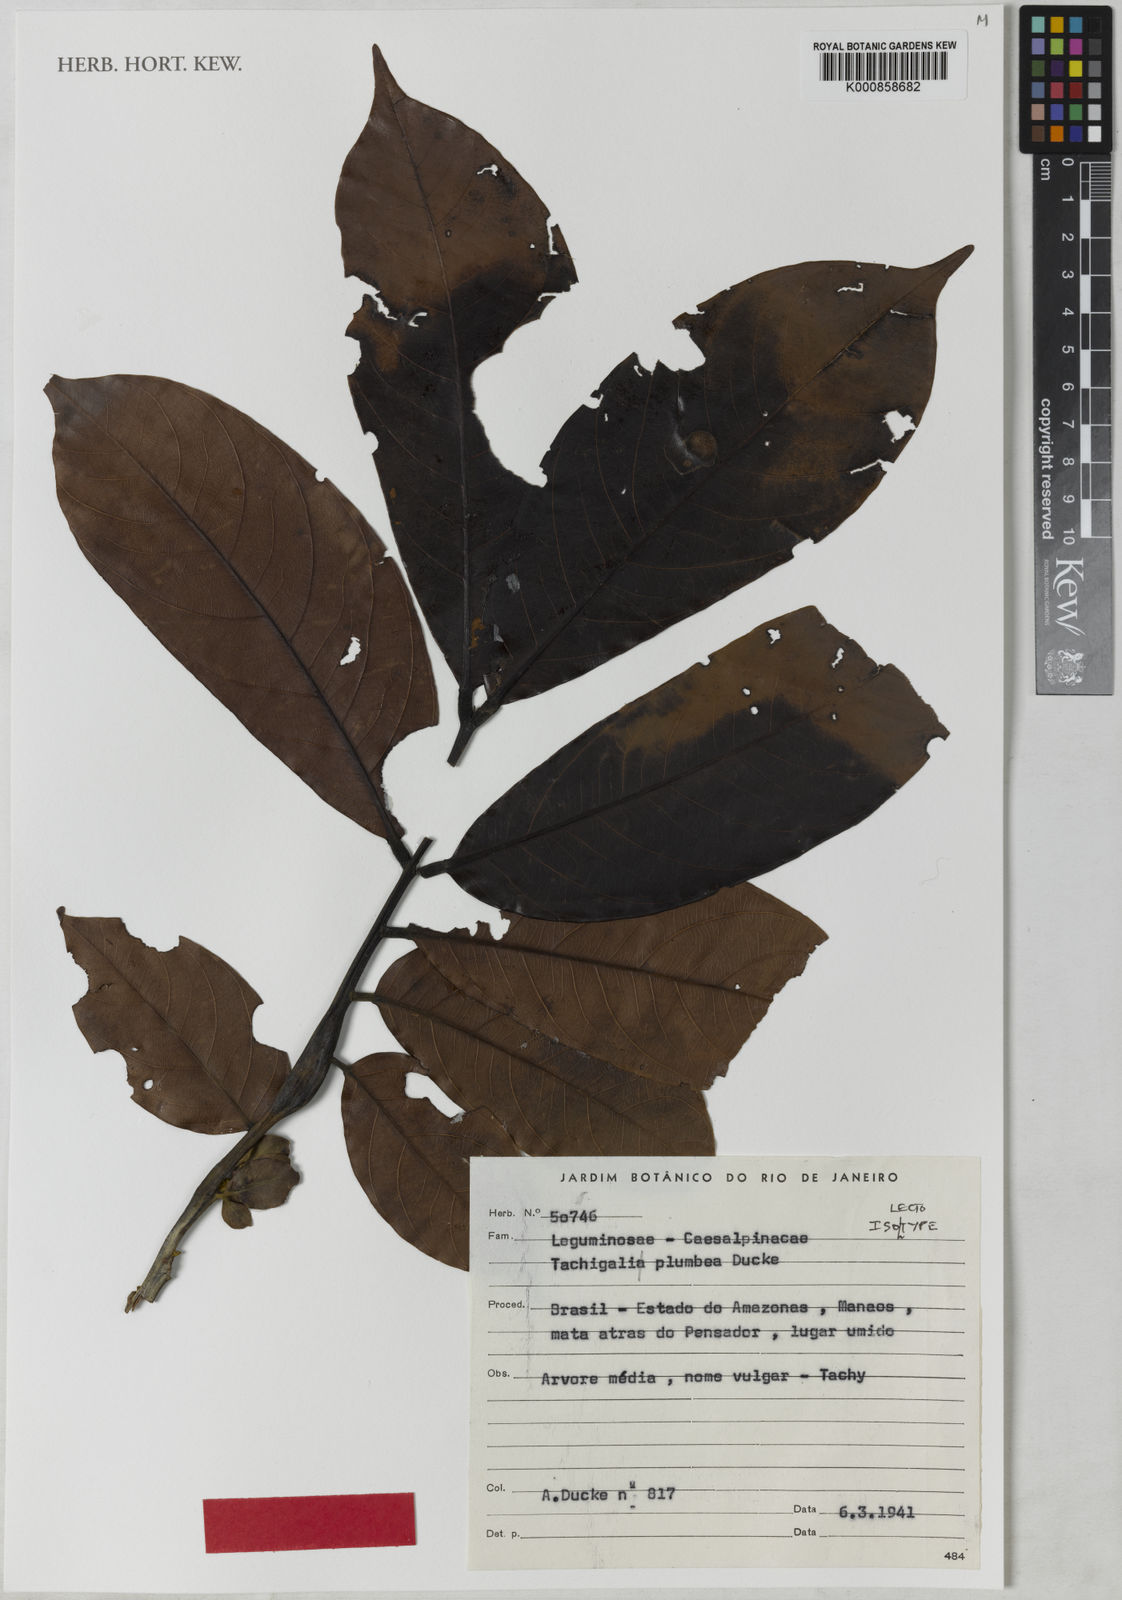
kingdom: Plantae
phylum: Tracheophyta
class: Magnoliopsida
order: Fabales
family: Fabaceae
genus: Tachigali
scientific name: Tachigali plumbea
